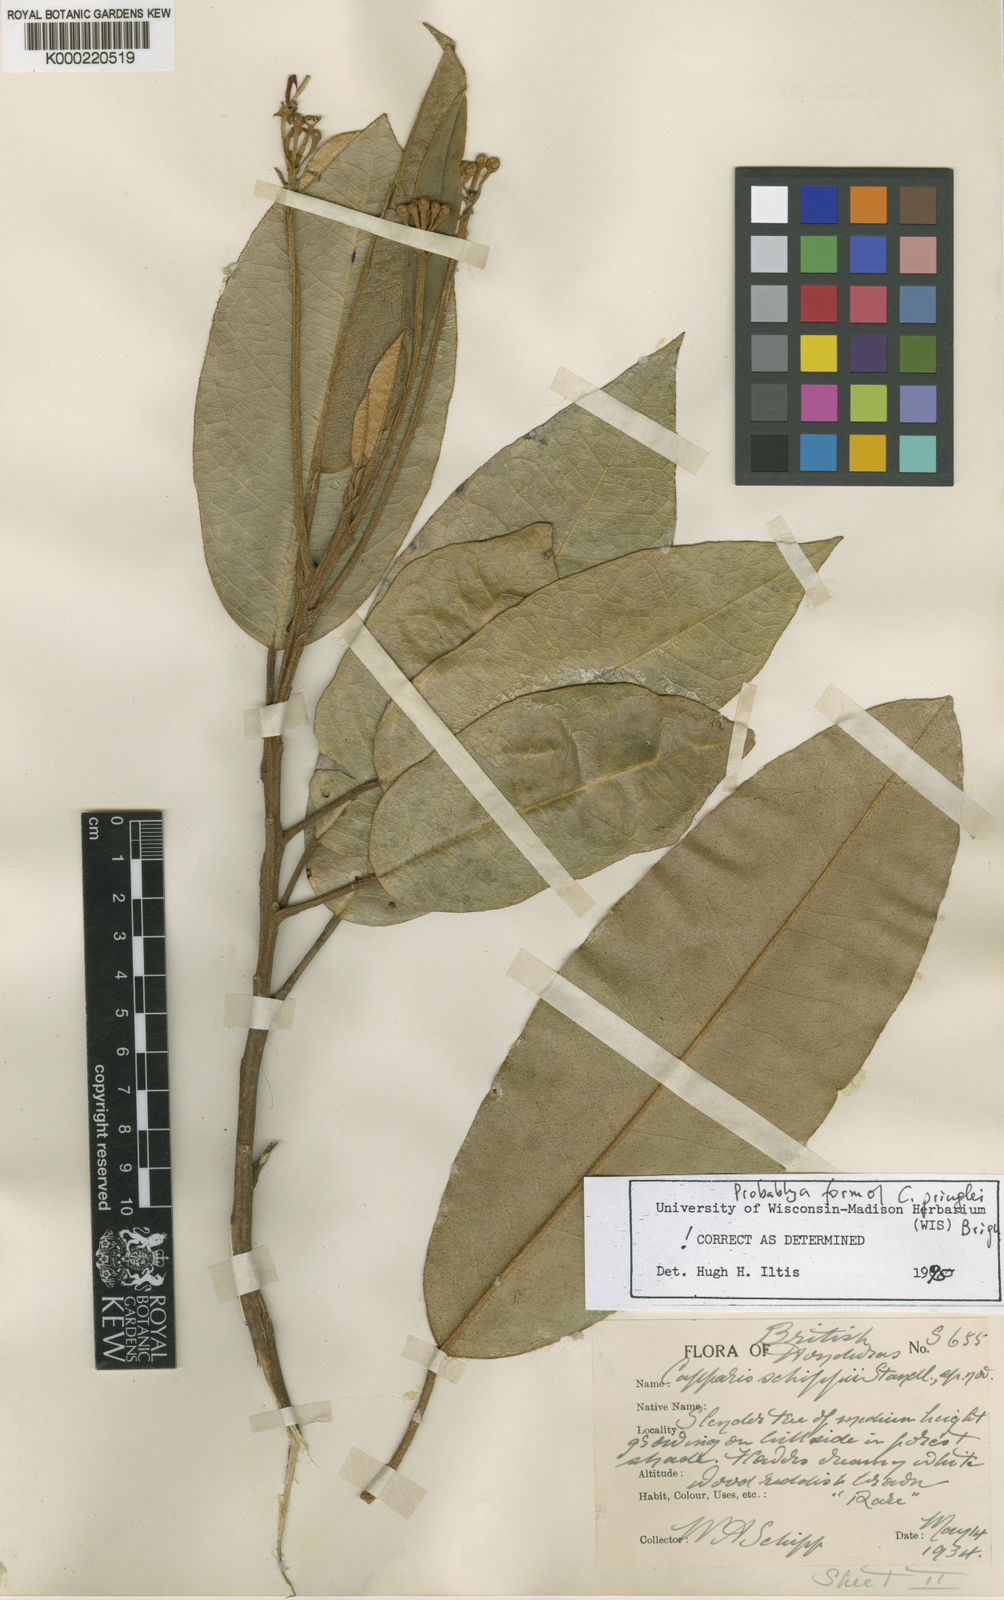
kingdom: Plantae
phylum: Tracheophyta
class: Magnoliopsida
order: Brassicales
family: Capparaceae
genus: Capparis
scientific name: Capparis
